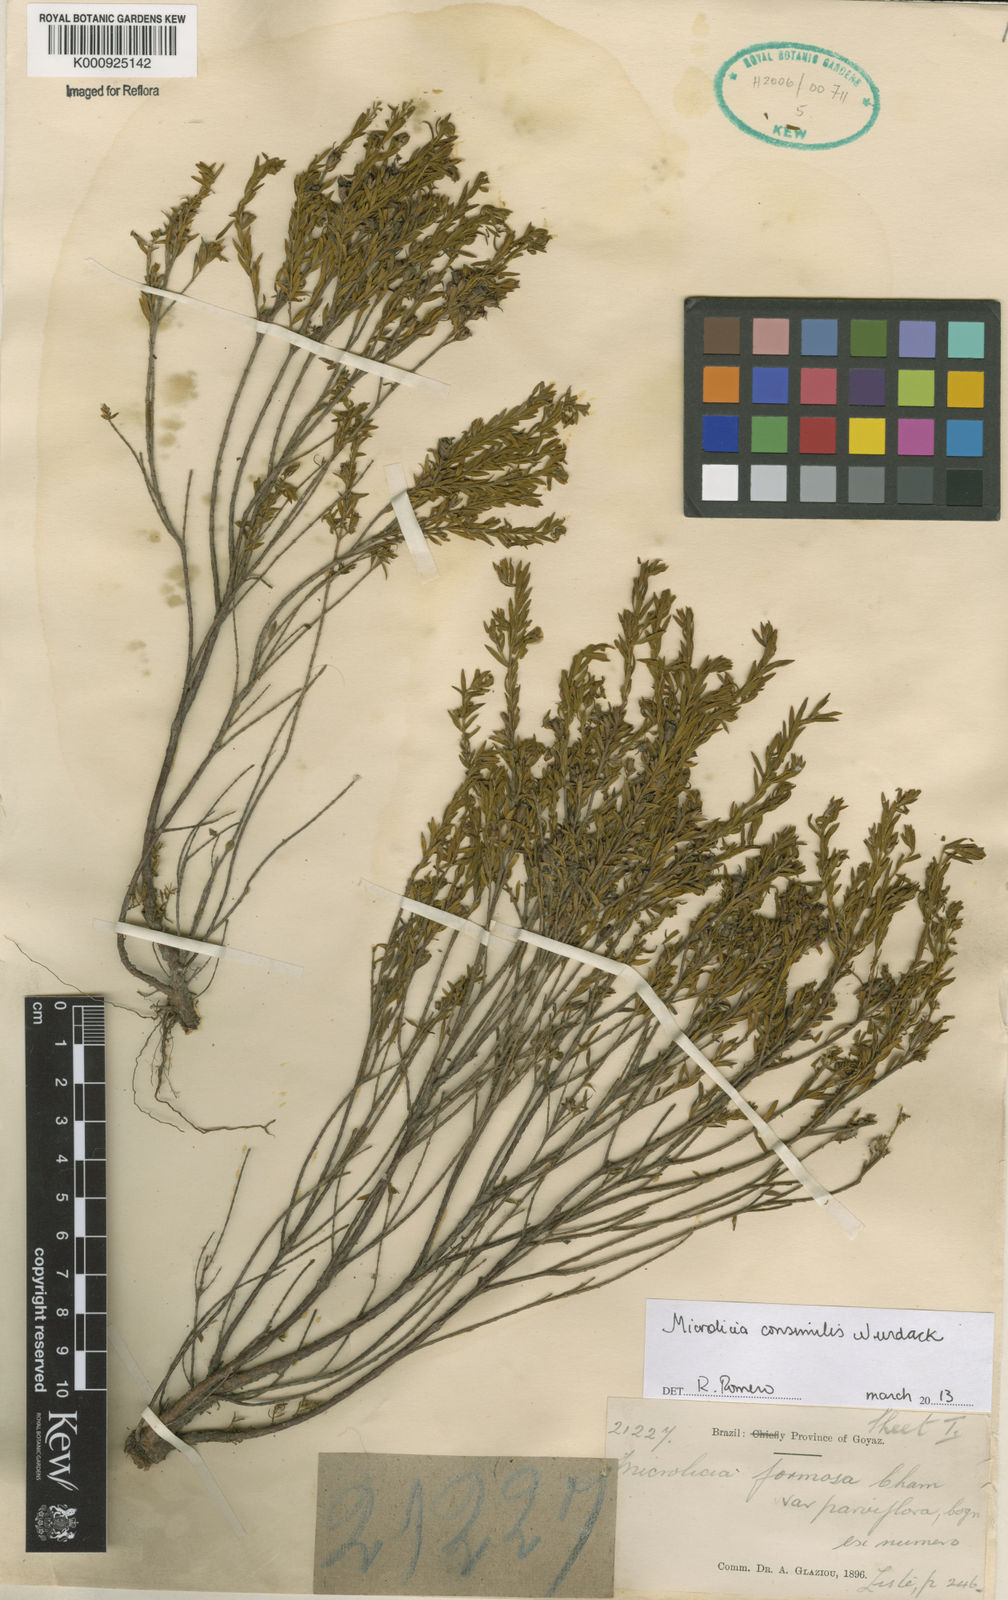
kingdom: Plantae
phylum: Tracheophyta
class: Magnoliopsida
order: Myrtales
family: Melastomataceae
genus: Microlicia
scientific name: Microlicia consimilis
